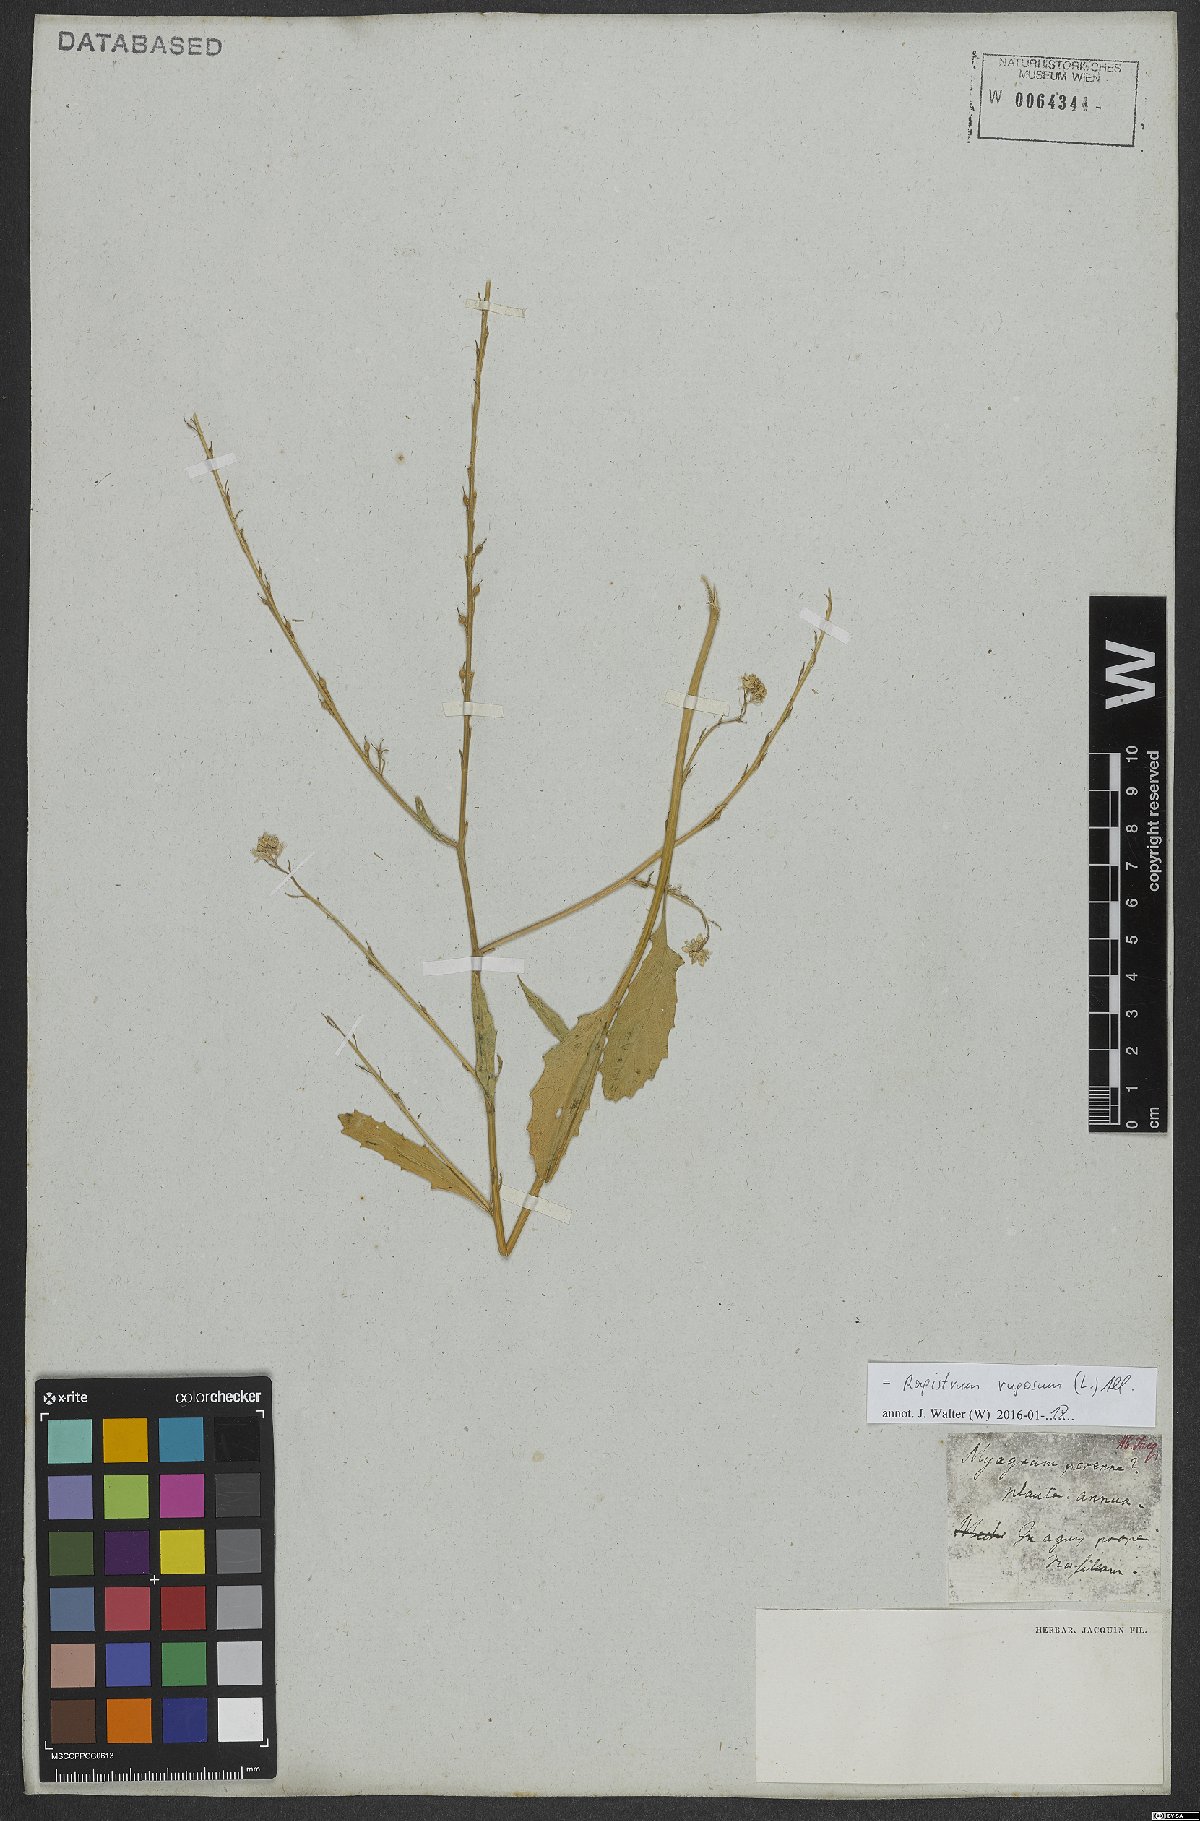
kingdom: Plantae
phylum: Tracheophyta
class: Magnoliopsida
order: Brassicales
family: Brassicaceae
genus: Rapistrum
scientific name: Rapistrum rugosum
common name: Annual bastardcabbage
